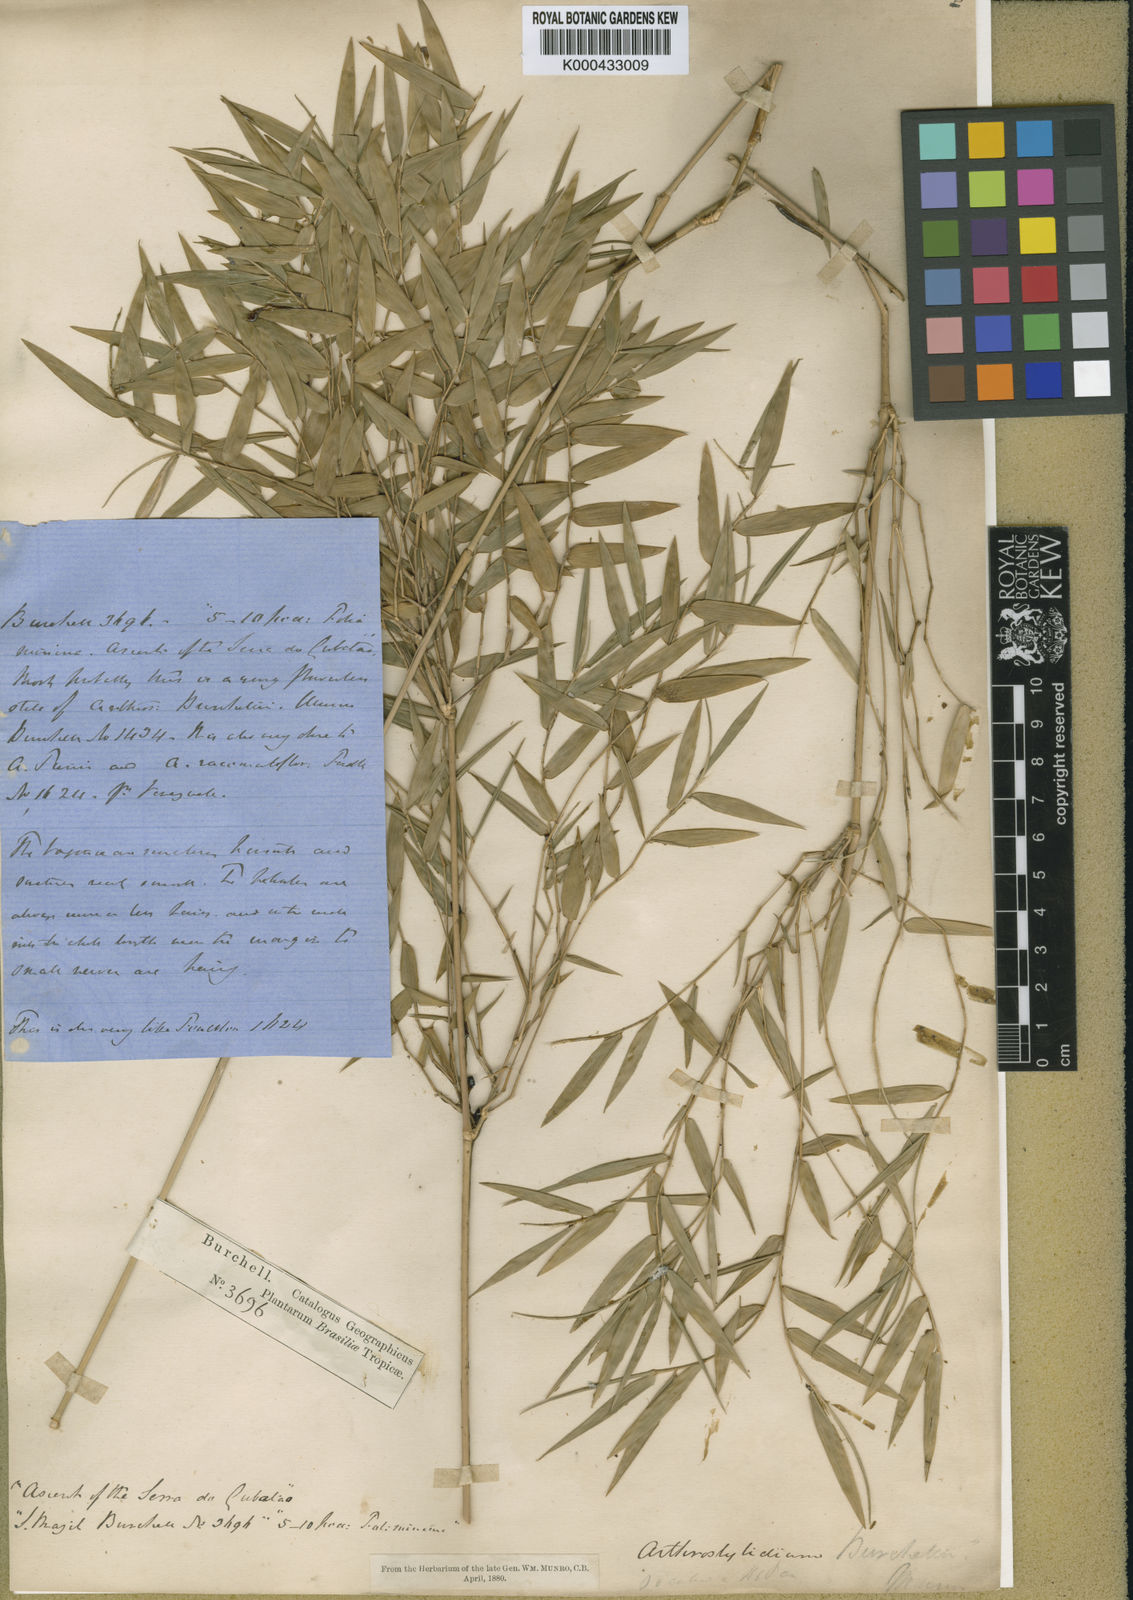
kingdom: Plantae
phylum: Tracheophyta
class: Liliopsida
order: Poales
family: Poaceae
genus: Colanthelia
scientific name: Colanthelia burchellii
